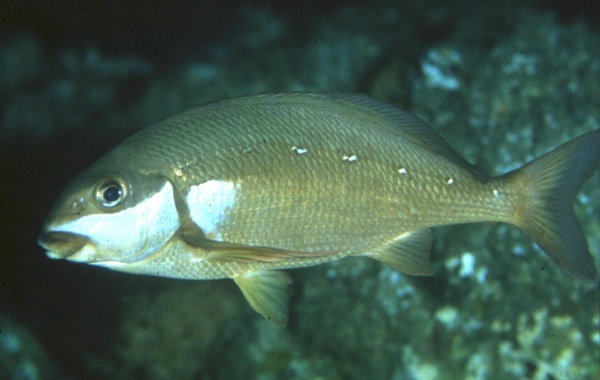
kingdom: Animalia
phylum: Chordata
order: Perciformes
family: Cheilodactylidae
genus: Chirodactylus
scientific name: Chirodactylus brachydactylus
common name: Butterfish
